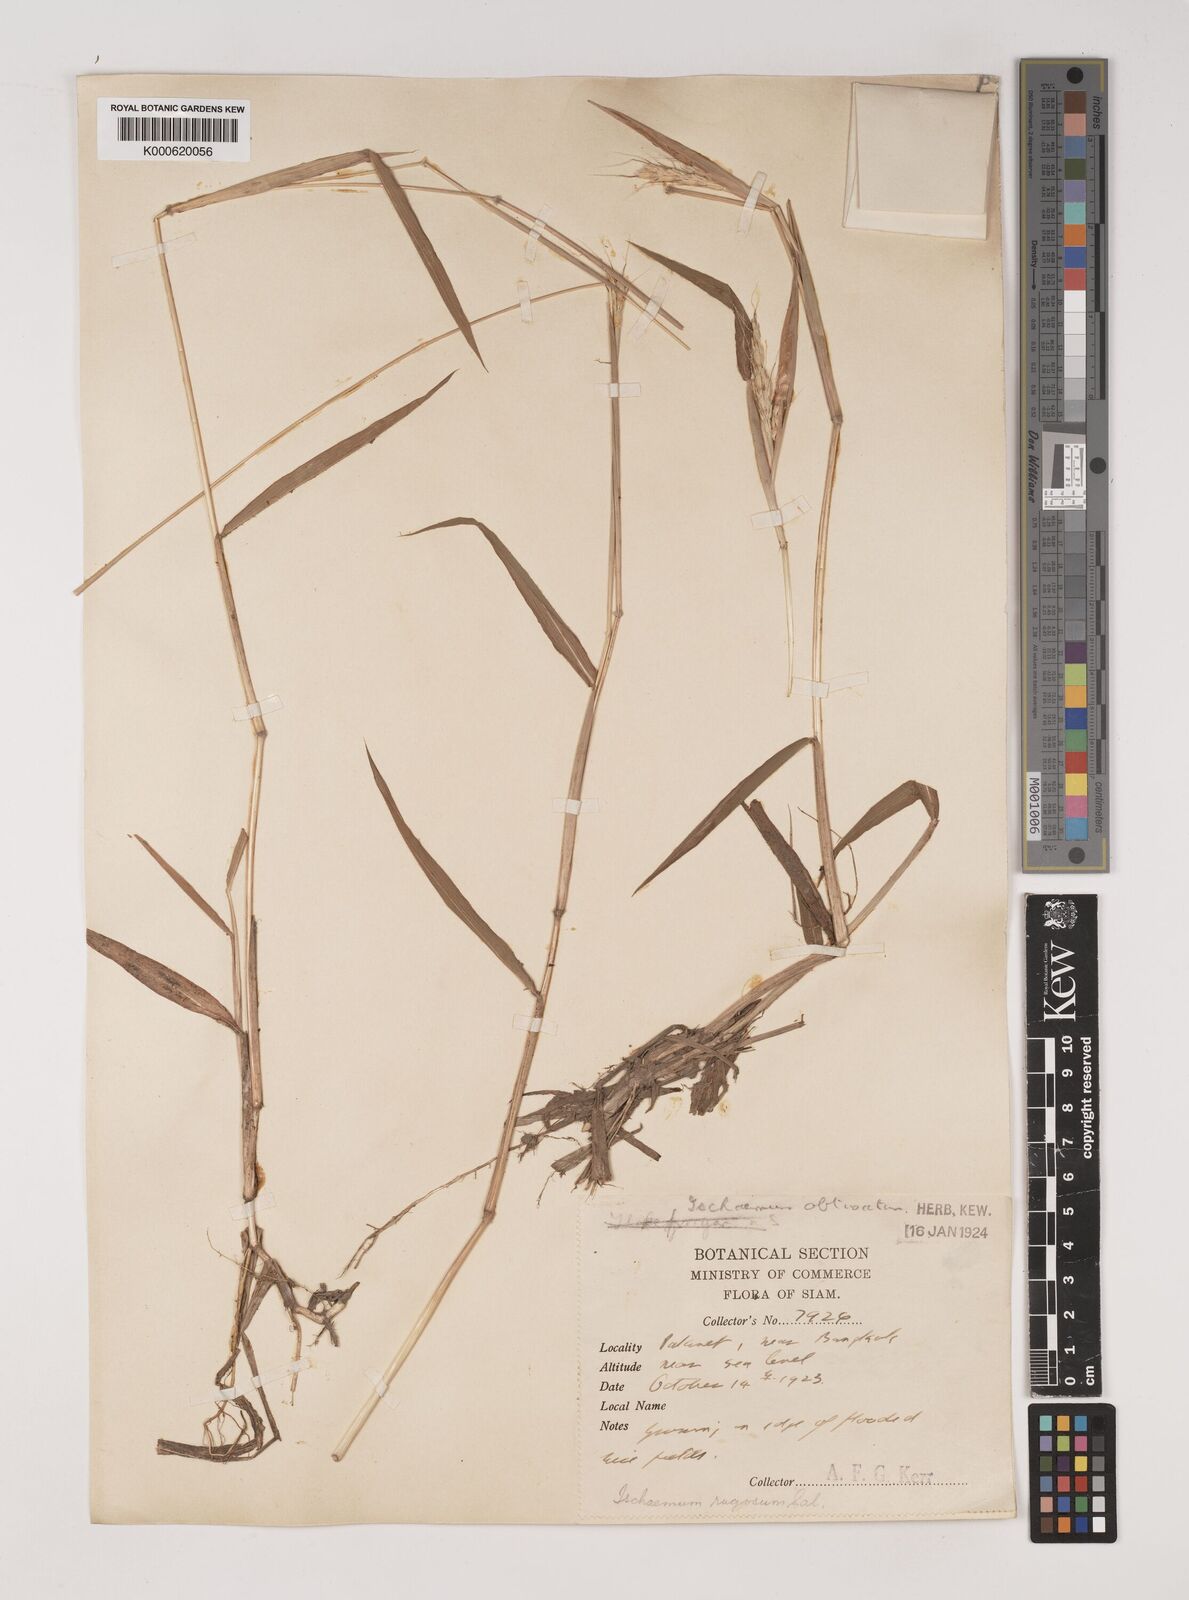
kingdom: Plantae
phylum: Tracheophyta
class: Liliopsida
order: Poales
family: Poaceae
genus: Ischaemum
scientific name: Ischaemum rugosum
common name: Saramatta grass
